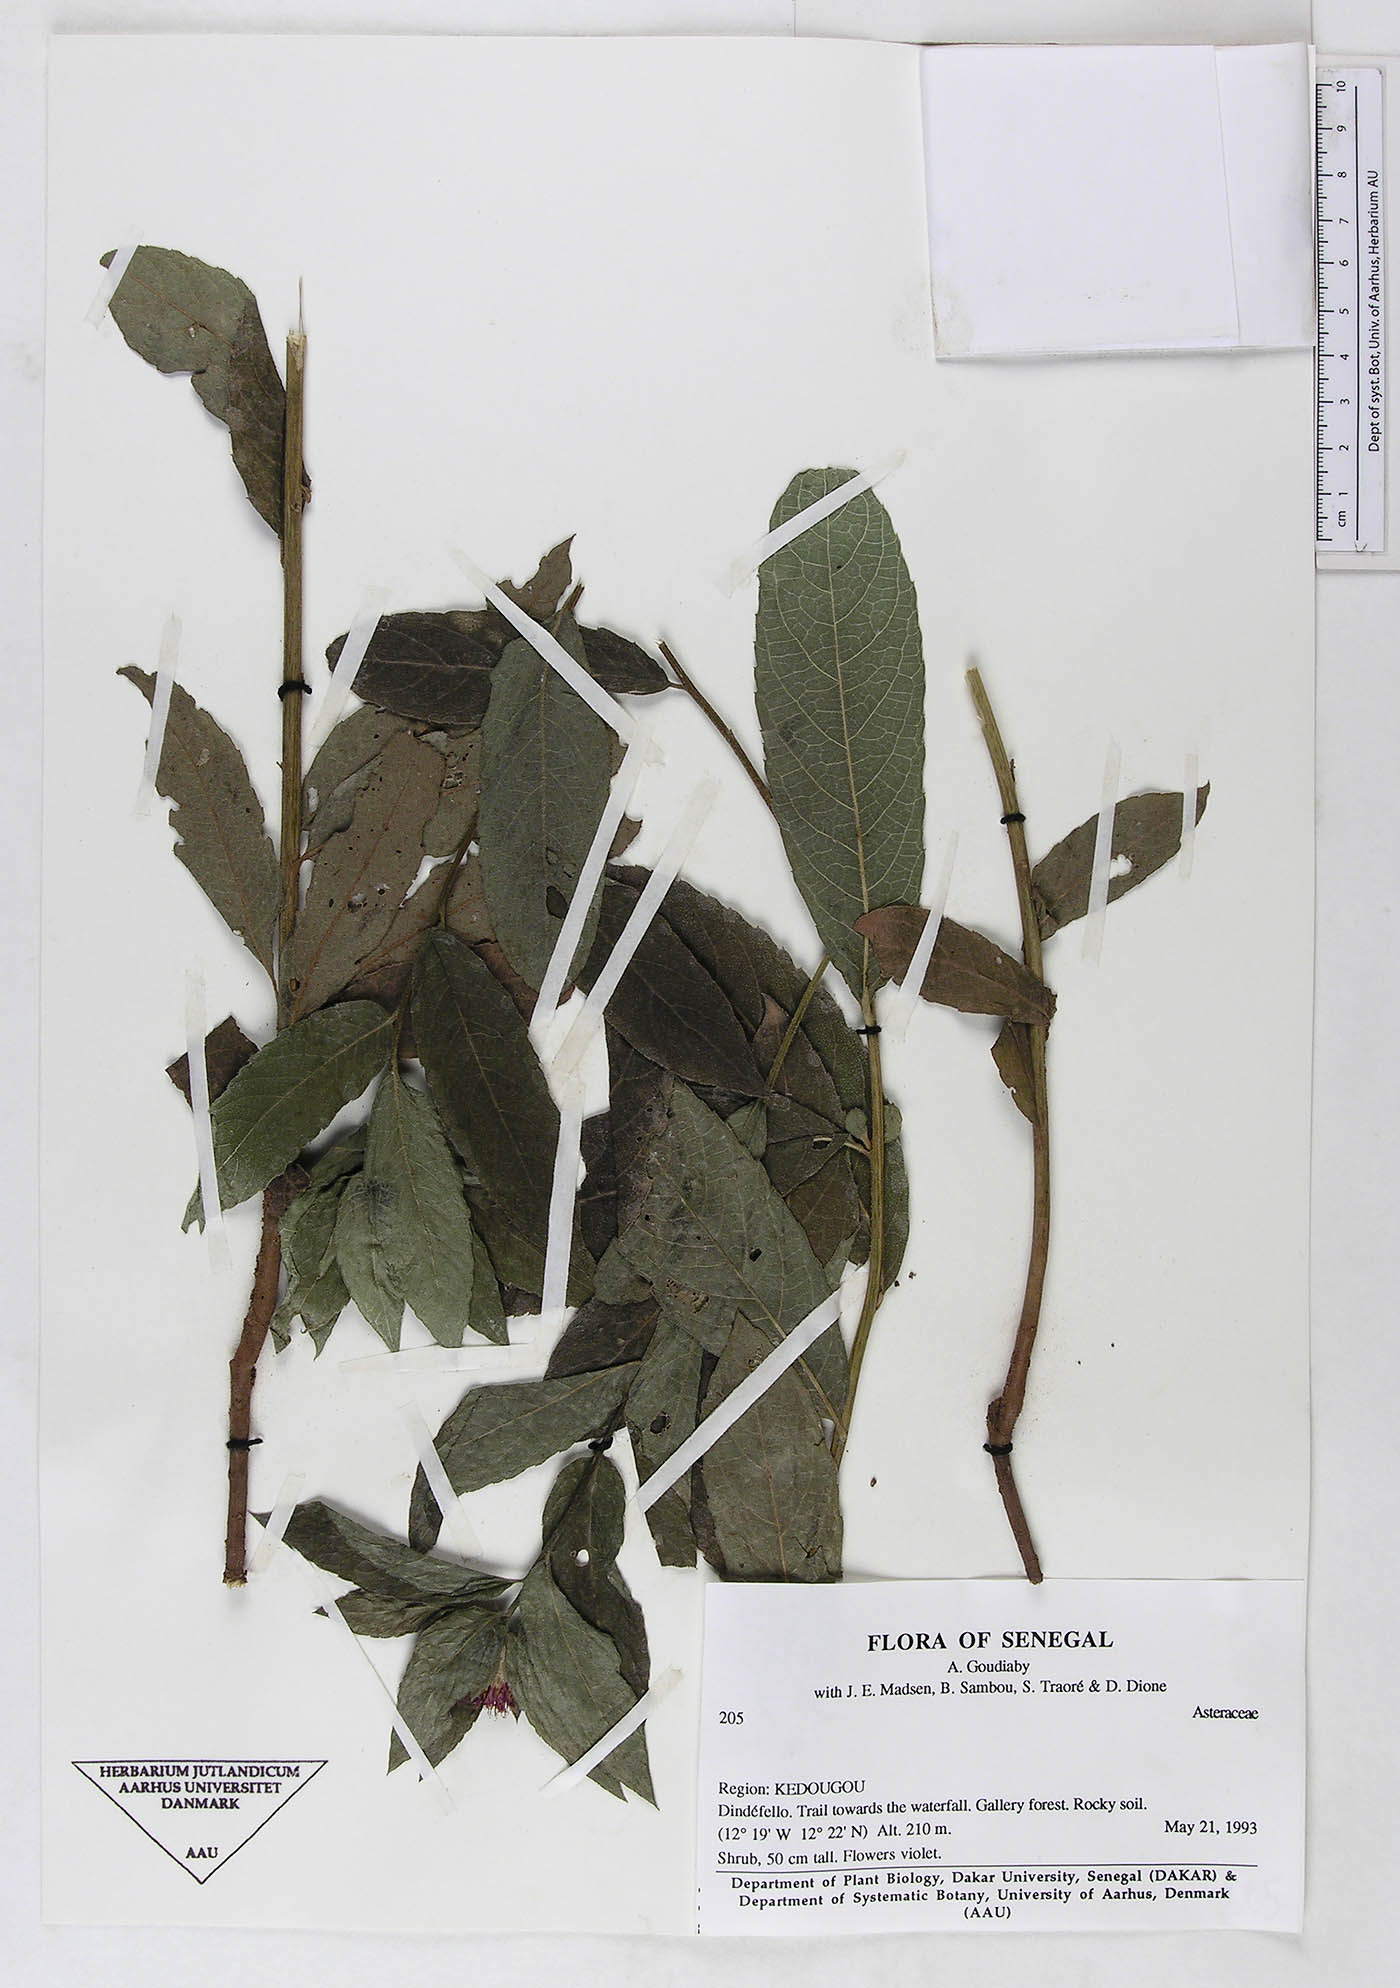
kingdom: Plantae
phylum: Tracheophyta
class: Magnoliopsida
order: Asterales
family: Asteraceae
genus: Nothovernonia
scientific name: Nothovernonia purpurea
